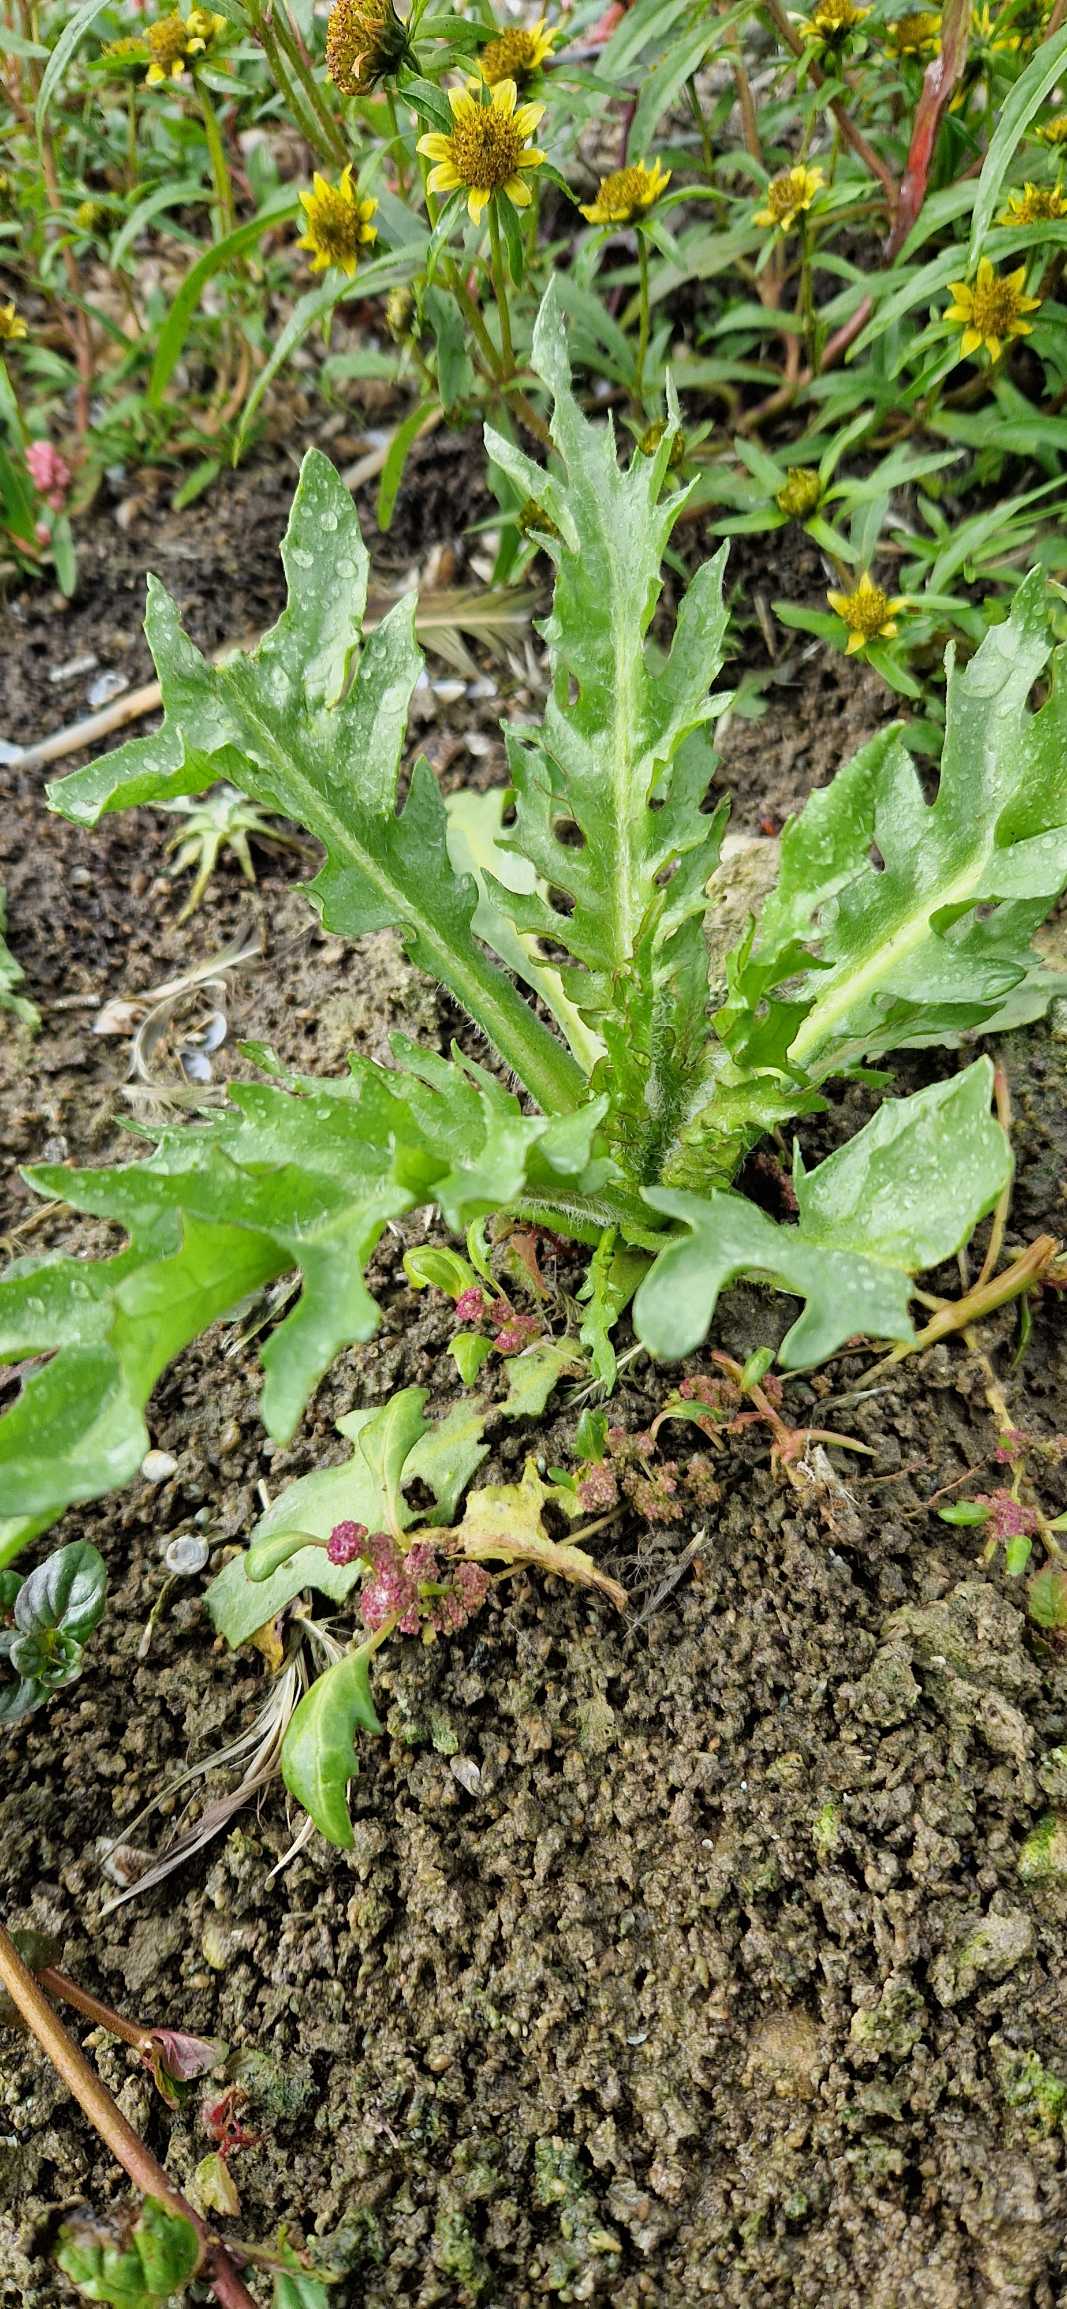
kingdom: Plantae
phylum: Tracheophyta
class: Magnoliopsida
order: Asterales
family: Asteraceae
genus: Tephroseris
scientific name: Tephroseris palustris
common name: Kær-fnokurt
